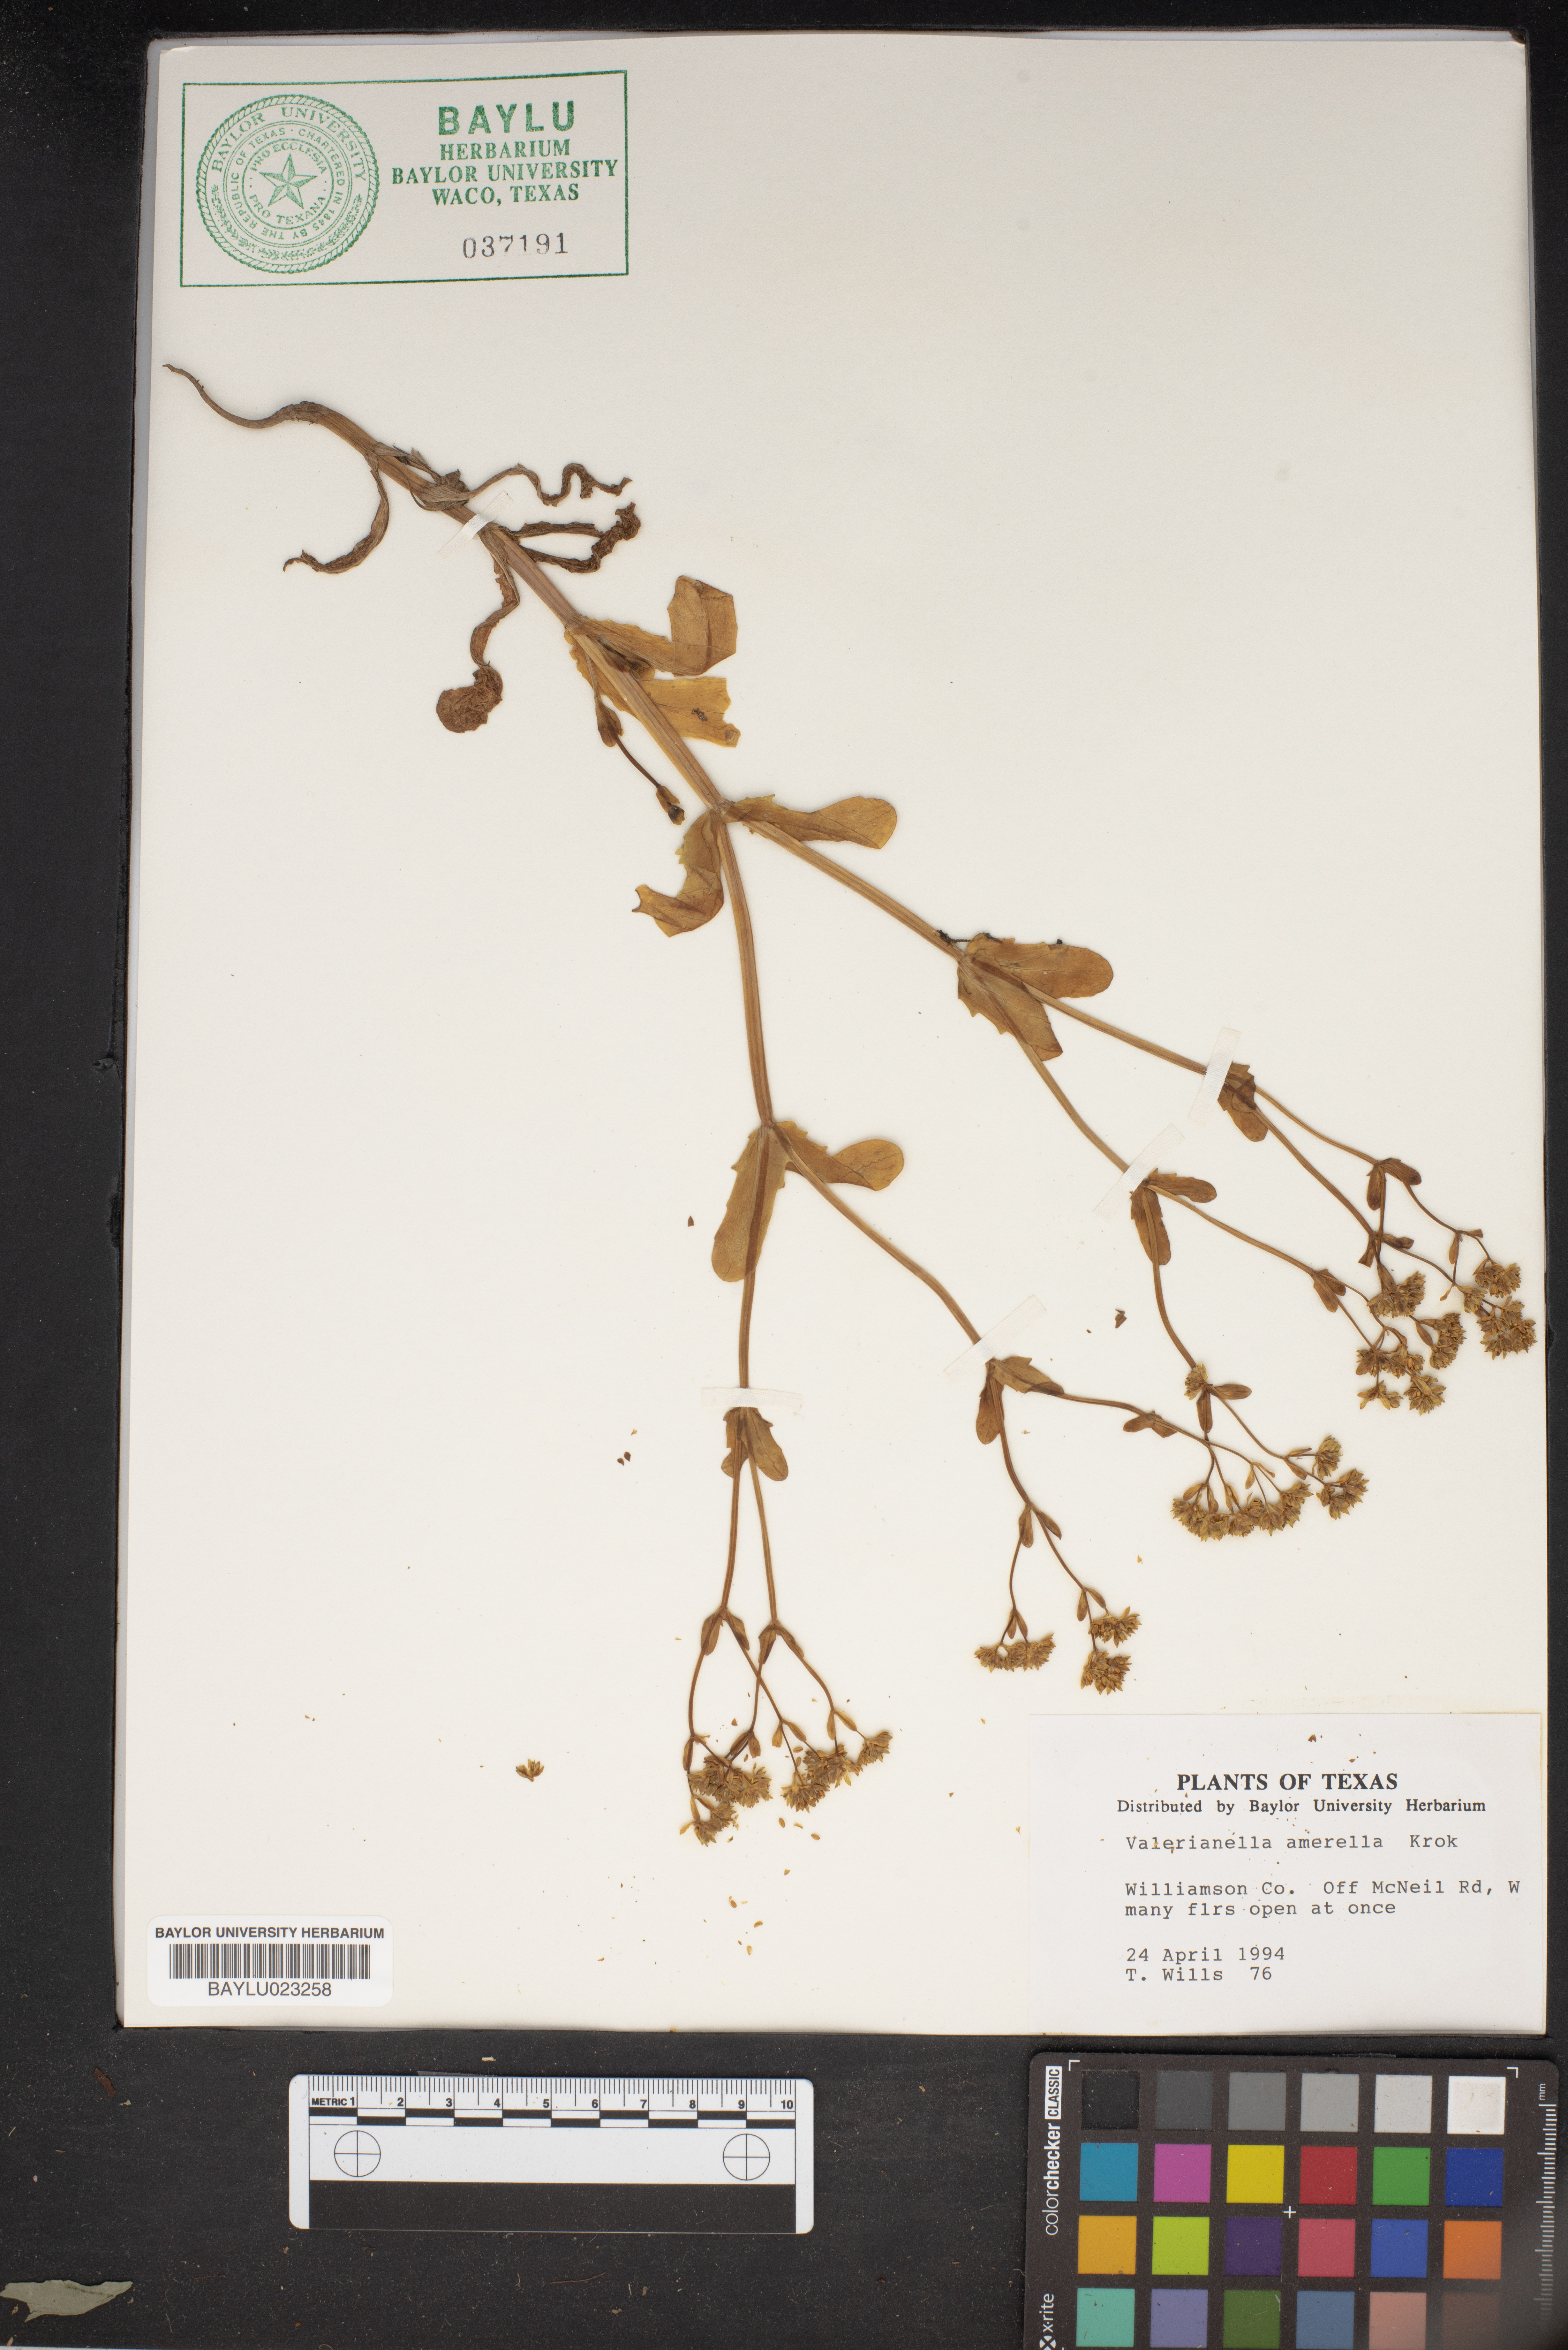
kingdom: Plantae
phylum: Tracheophyta
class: Magnoliopsida
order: Dipsacales
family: Caprifoliaceae
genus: Valerianella
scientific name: Valerianella amarella
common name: Hariy cornsalad
